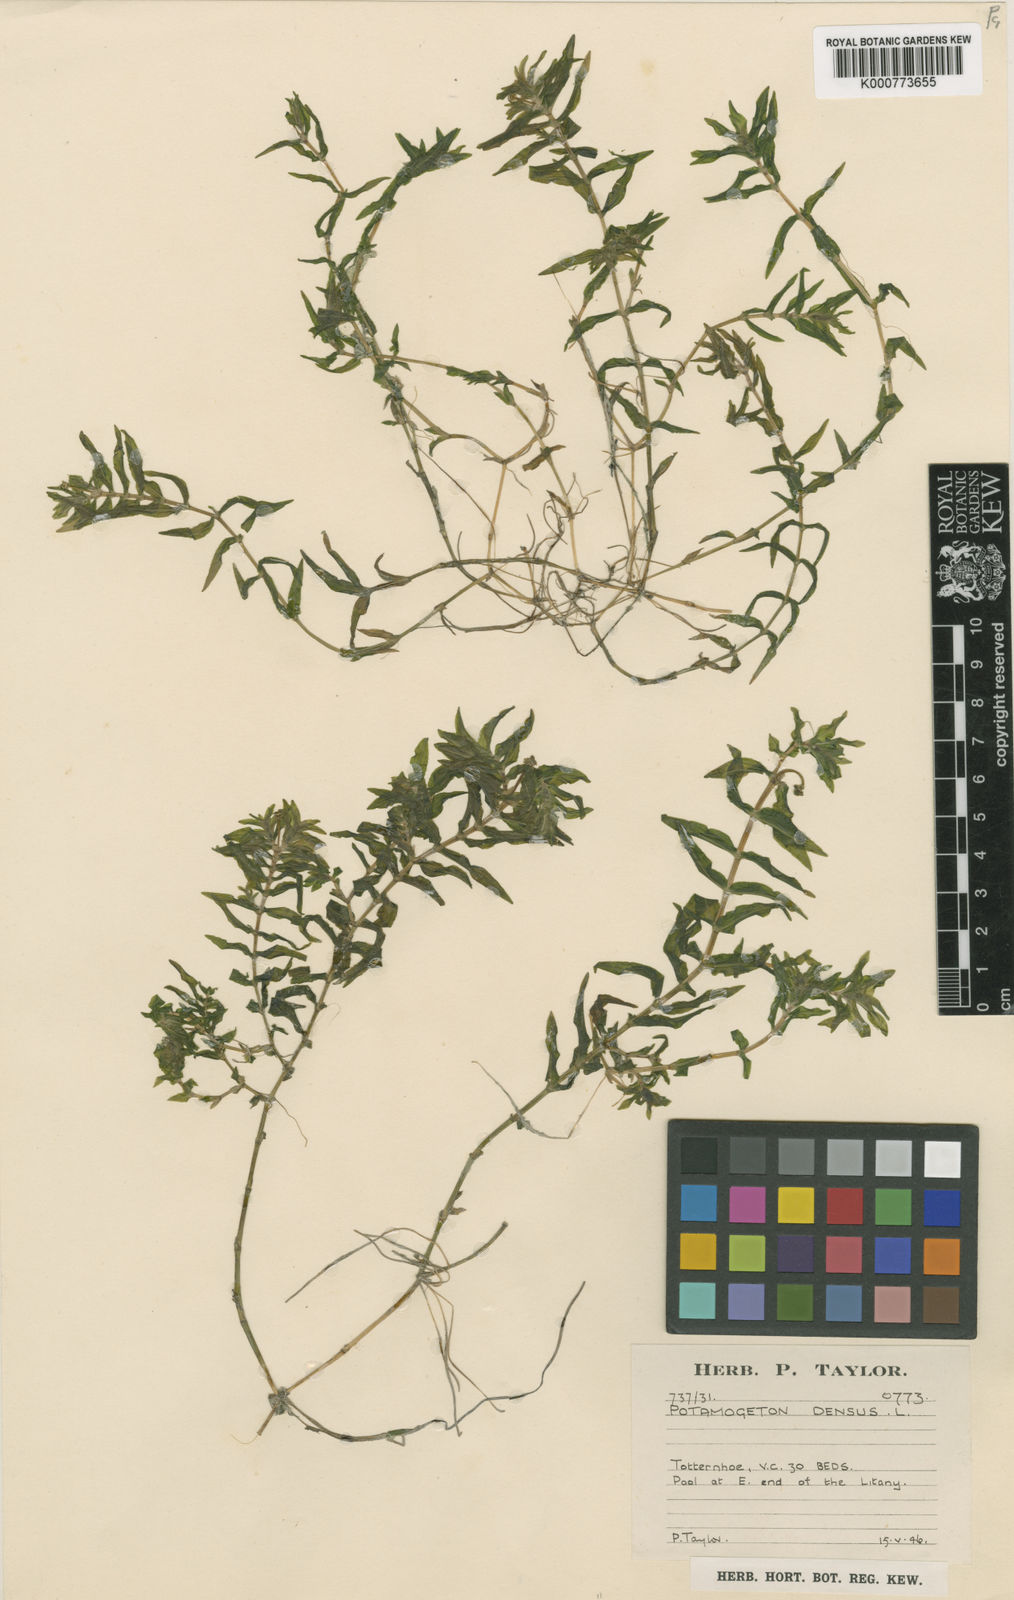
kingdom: Plantae
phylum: Tracheophyta
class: Liliopsida
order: Alismatales
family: Potamogetonaceae
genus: Groenlandia
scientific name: Groenlandia densa
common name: Opposite-leaved pondweed
